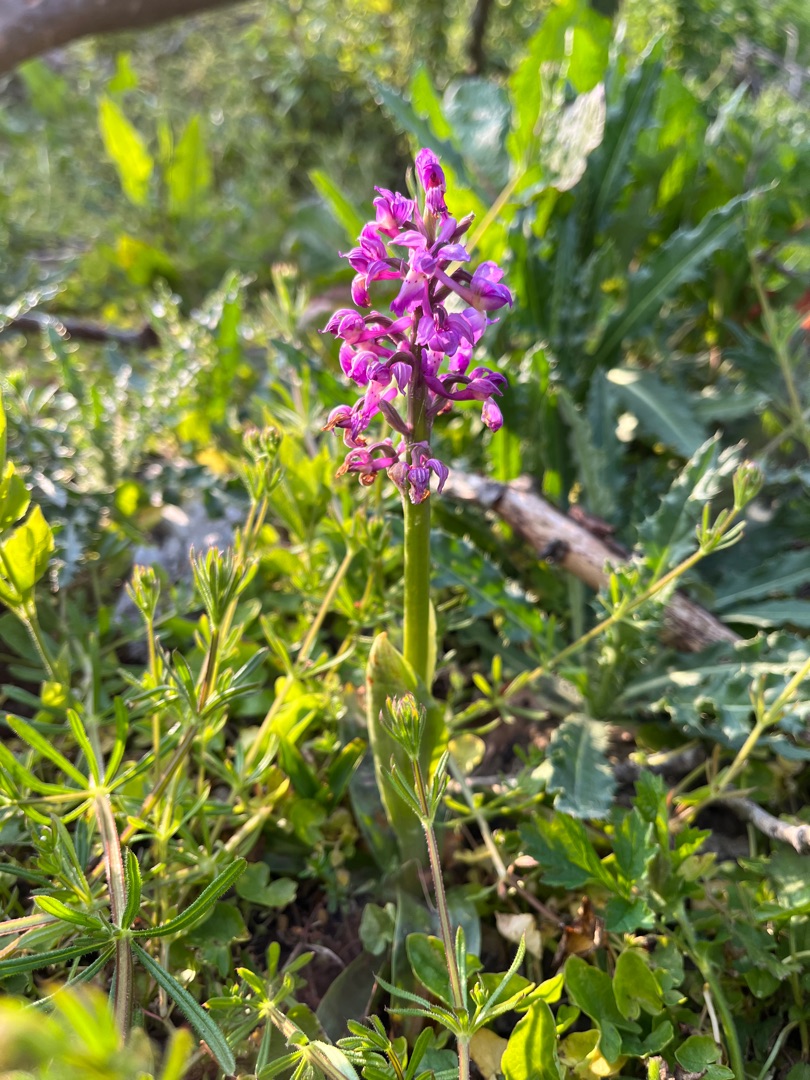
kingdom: Plantae
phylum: Tracheophyta
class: Liliopsida
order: Asparagales
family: Orchidaceae
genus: Orchis
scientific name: Orchis mascula
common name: Tyndakset gøgeurt
